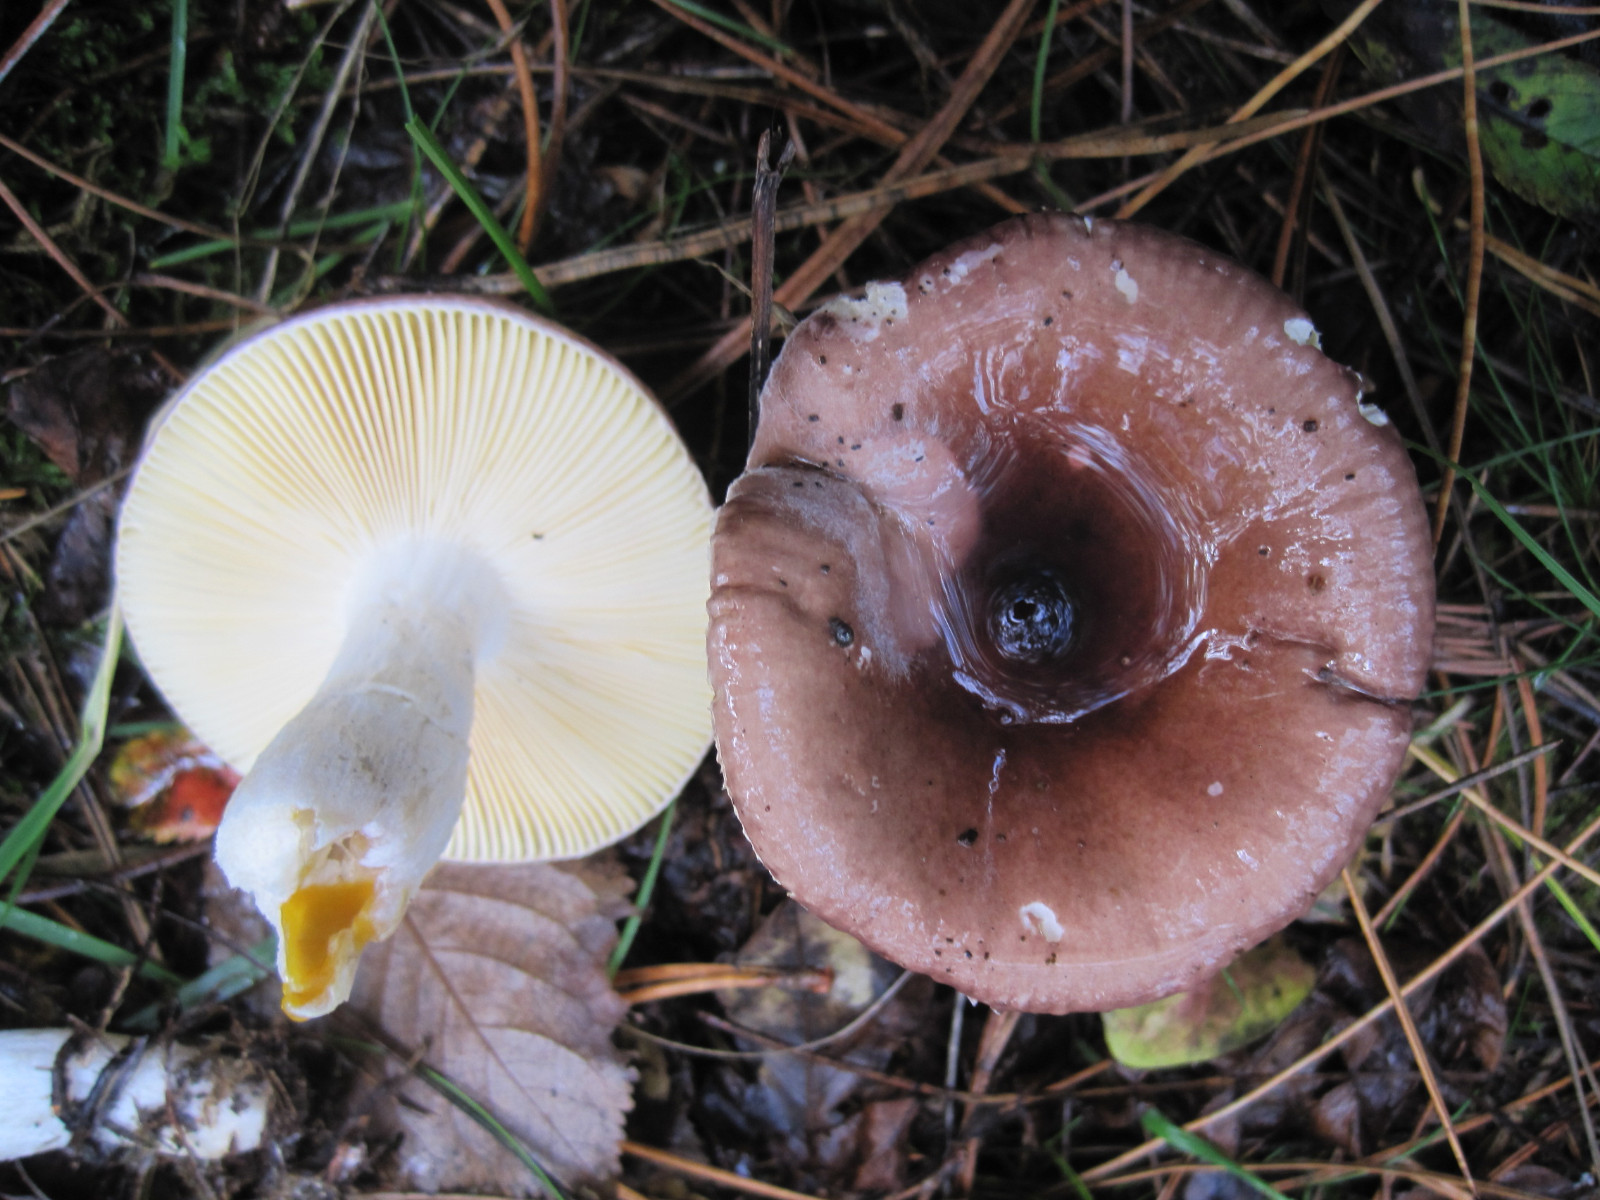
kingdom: Fungi
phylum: Basidiomycota
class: Agaricomycetes
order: Russulales
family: Russulaceae
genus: Russula
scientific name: Russula caerulea
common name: puklet skørhat
